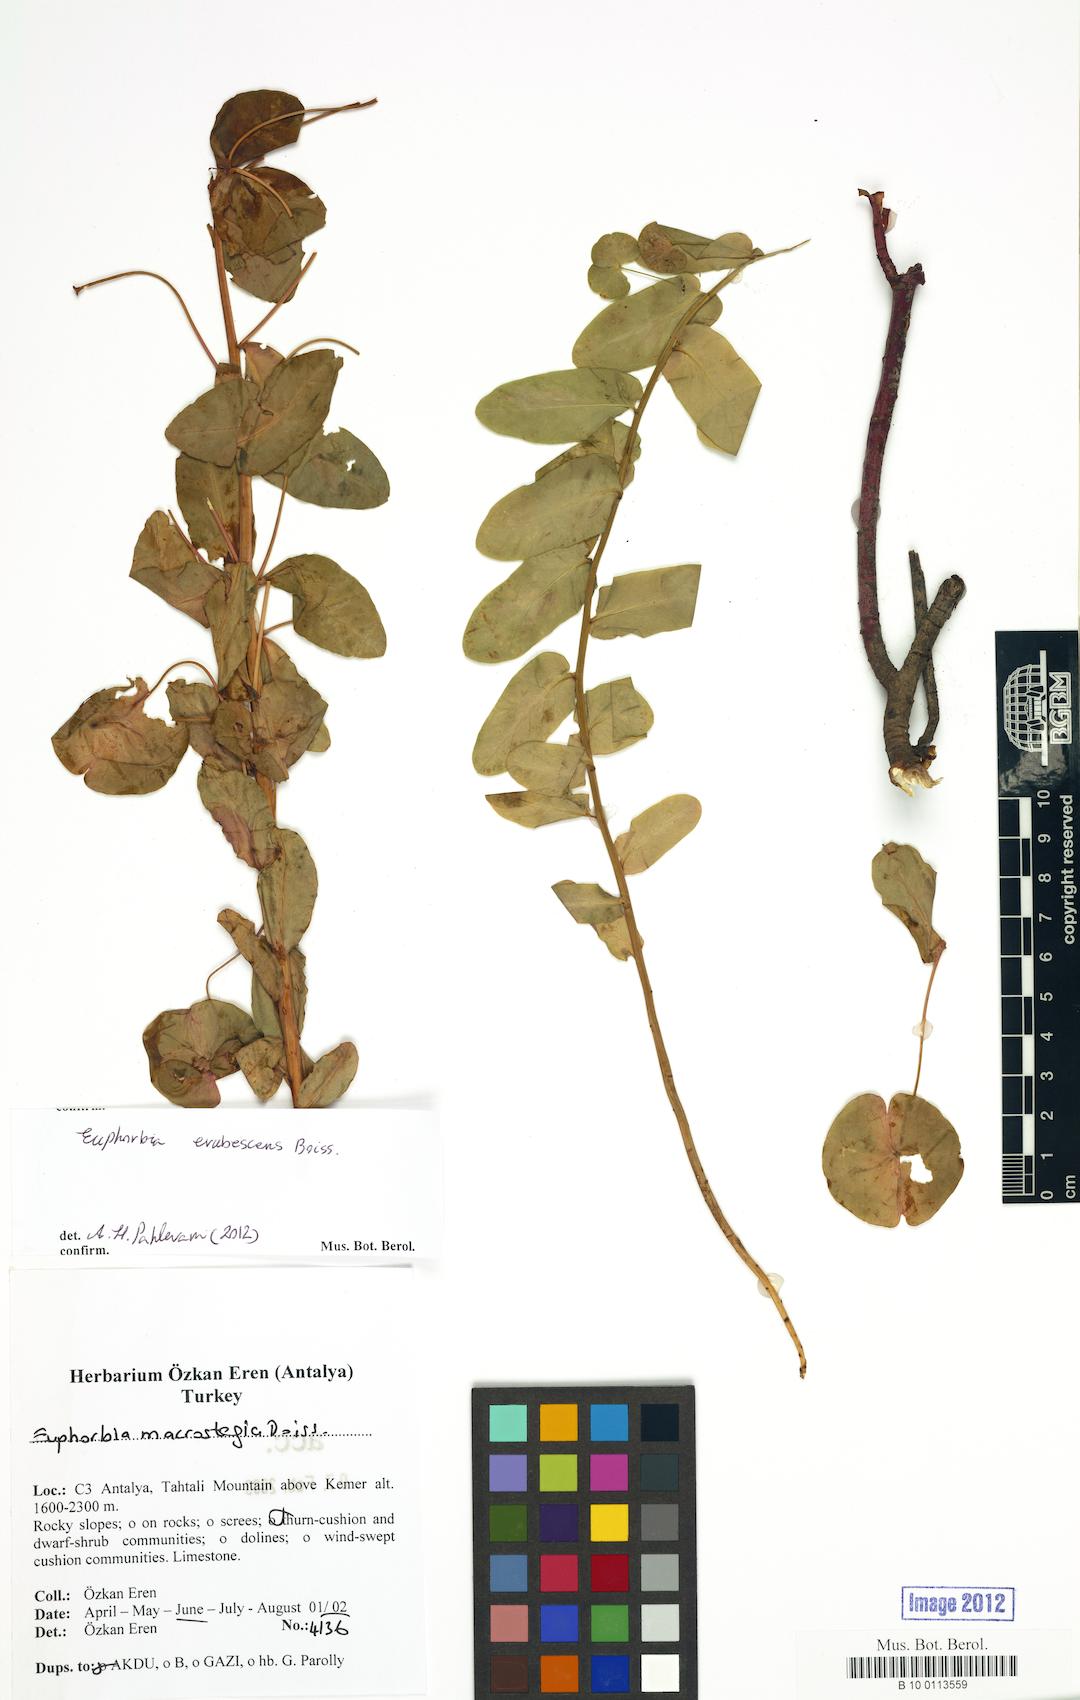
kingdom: Plantae
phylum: Tracheophyta
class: Magnoliopsida
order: Malpighiales
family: Euphorbiaceae
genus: Euphorbia
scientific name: Euphorbia erubescens
